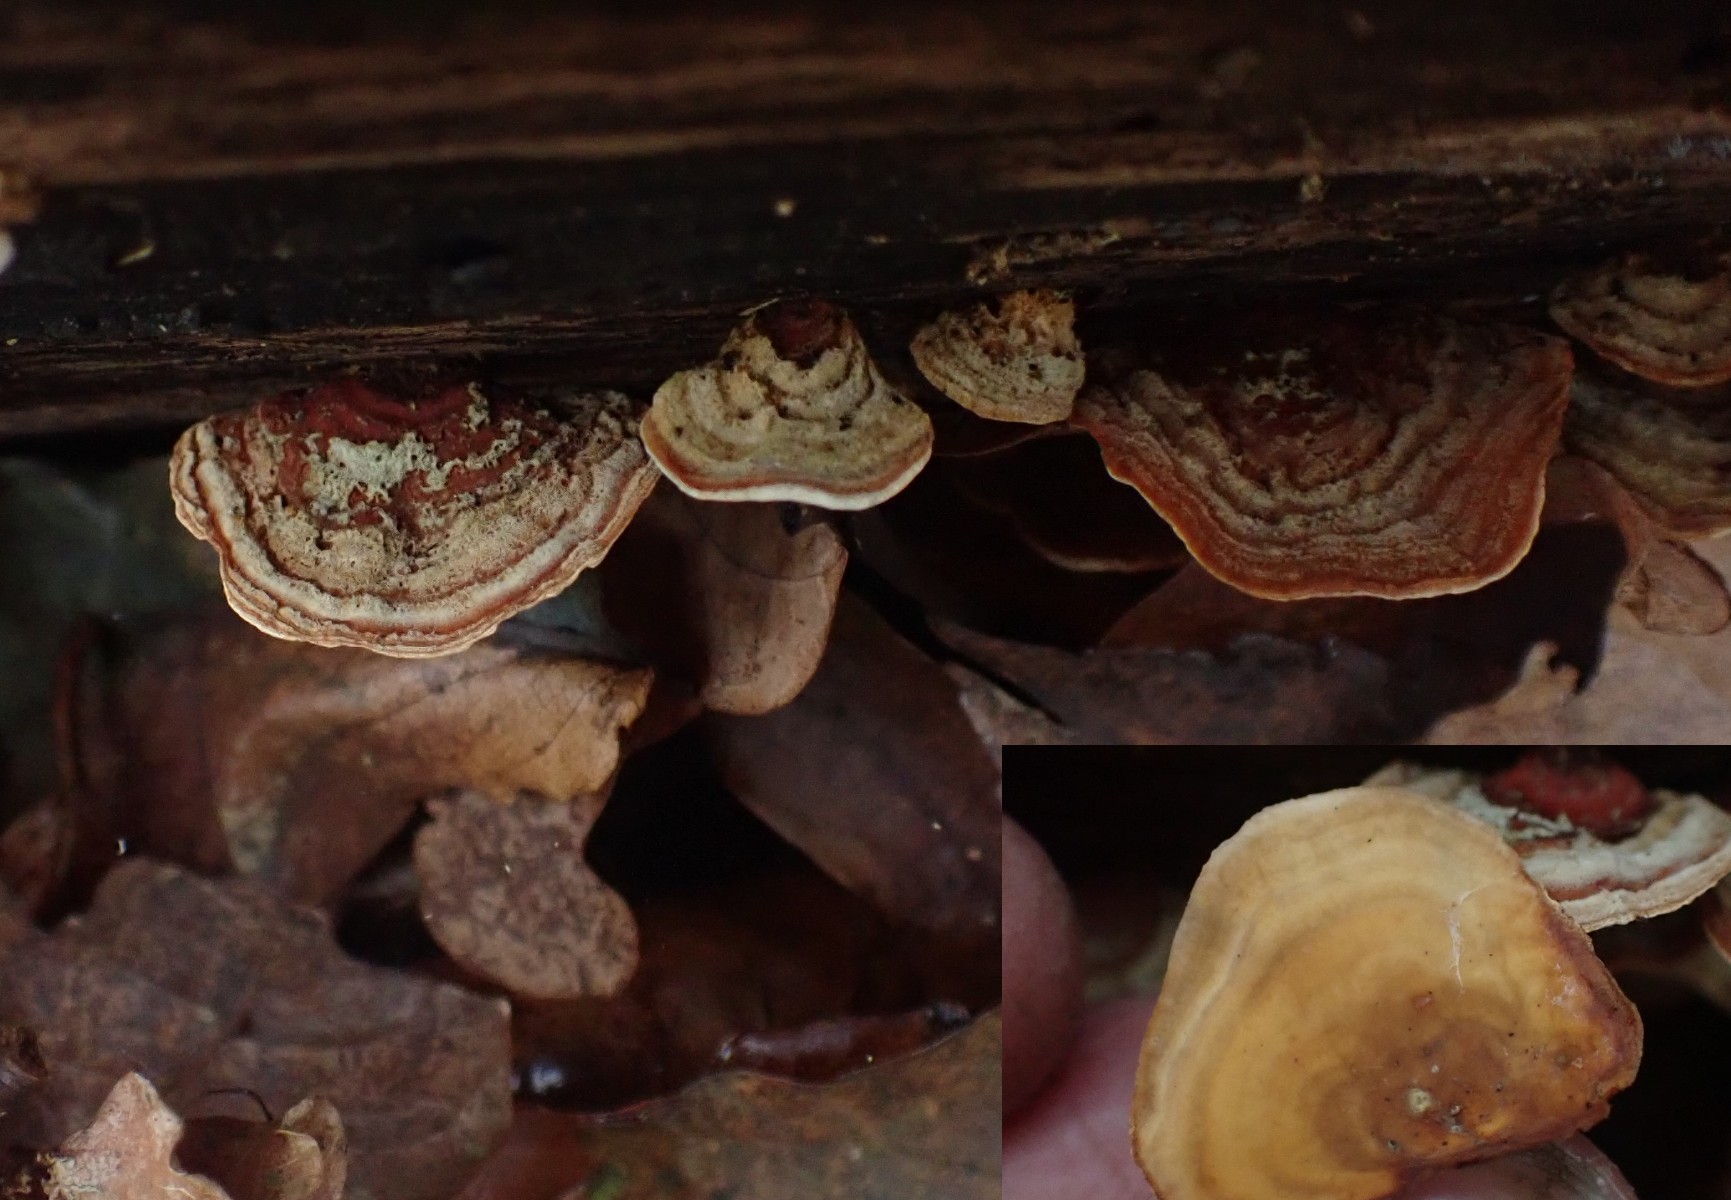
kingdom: Fungi
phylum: Basidiomycota
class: Agaricomycetes
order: Russulales
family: Stereaceae
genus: Stereum
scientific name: Stereum subtomentosum
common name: smuk lædersvamp
